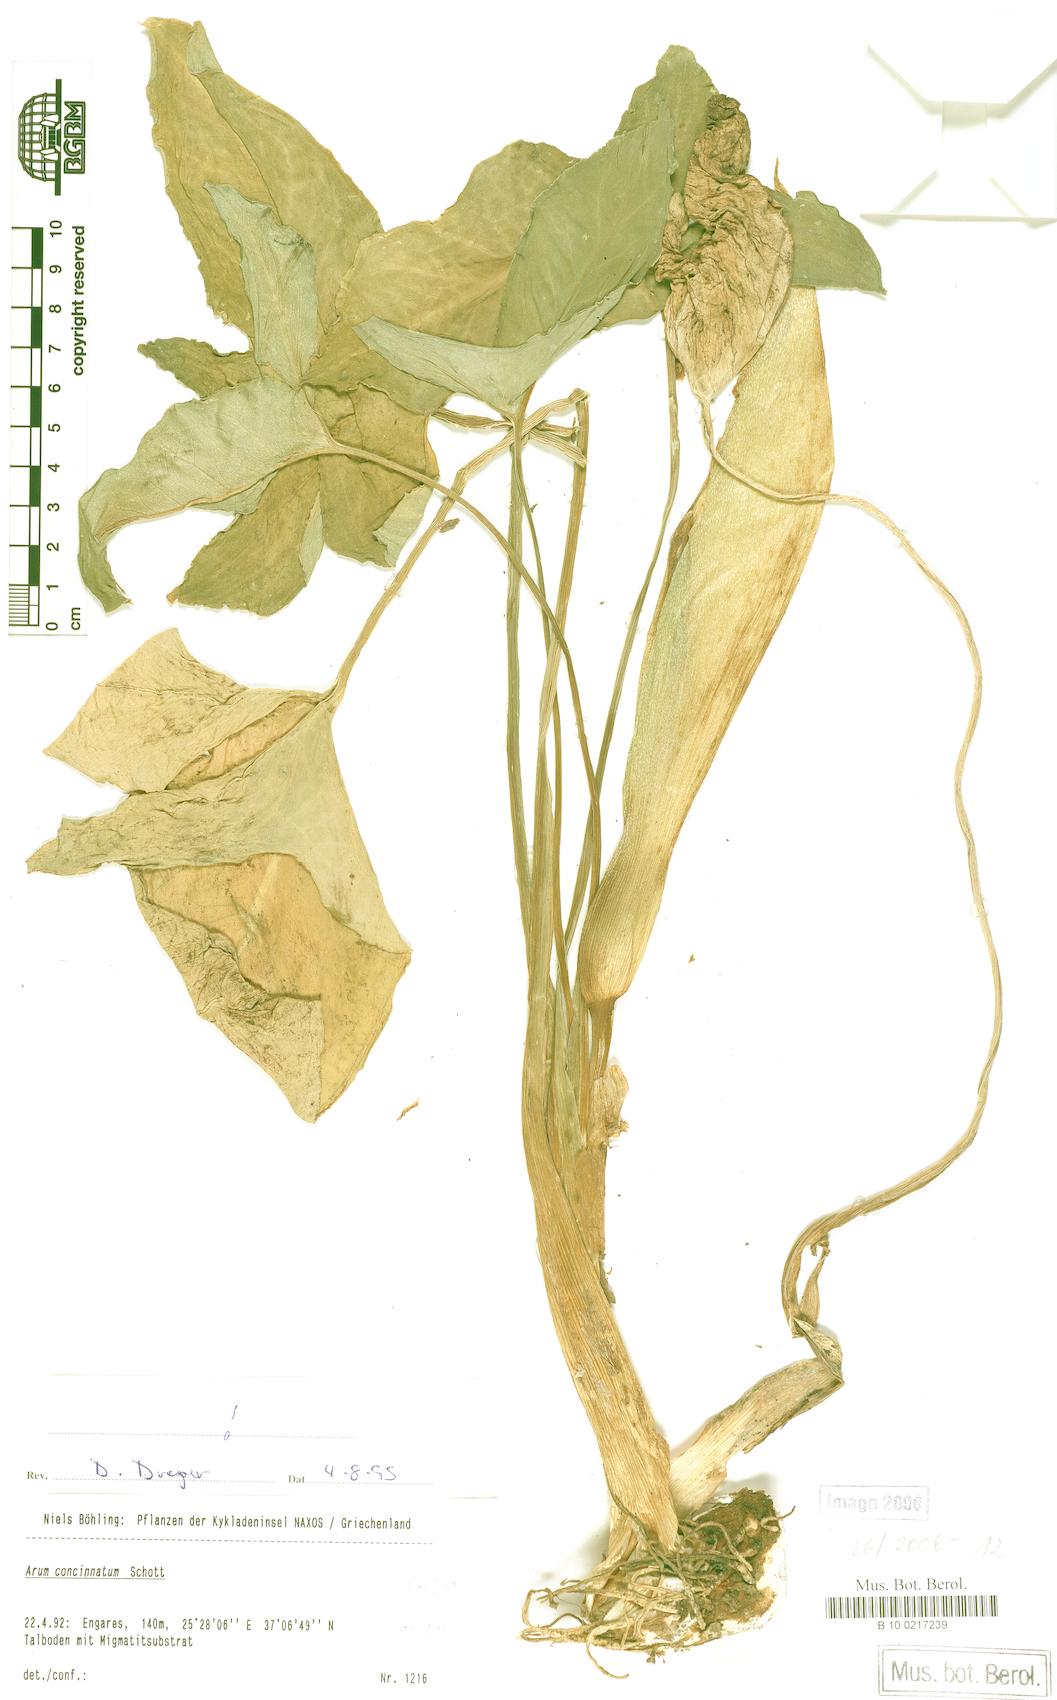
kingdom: Plantae
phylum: Tracheophyta
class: Liliopsida
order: Alismatales
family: Araceae
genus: Arum
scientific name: Arum concinnatum
